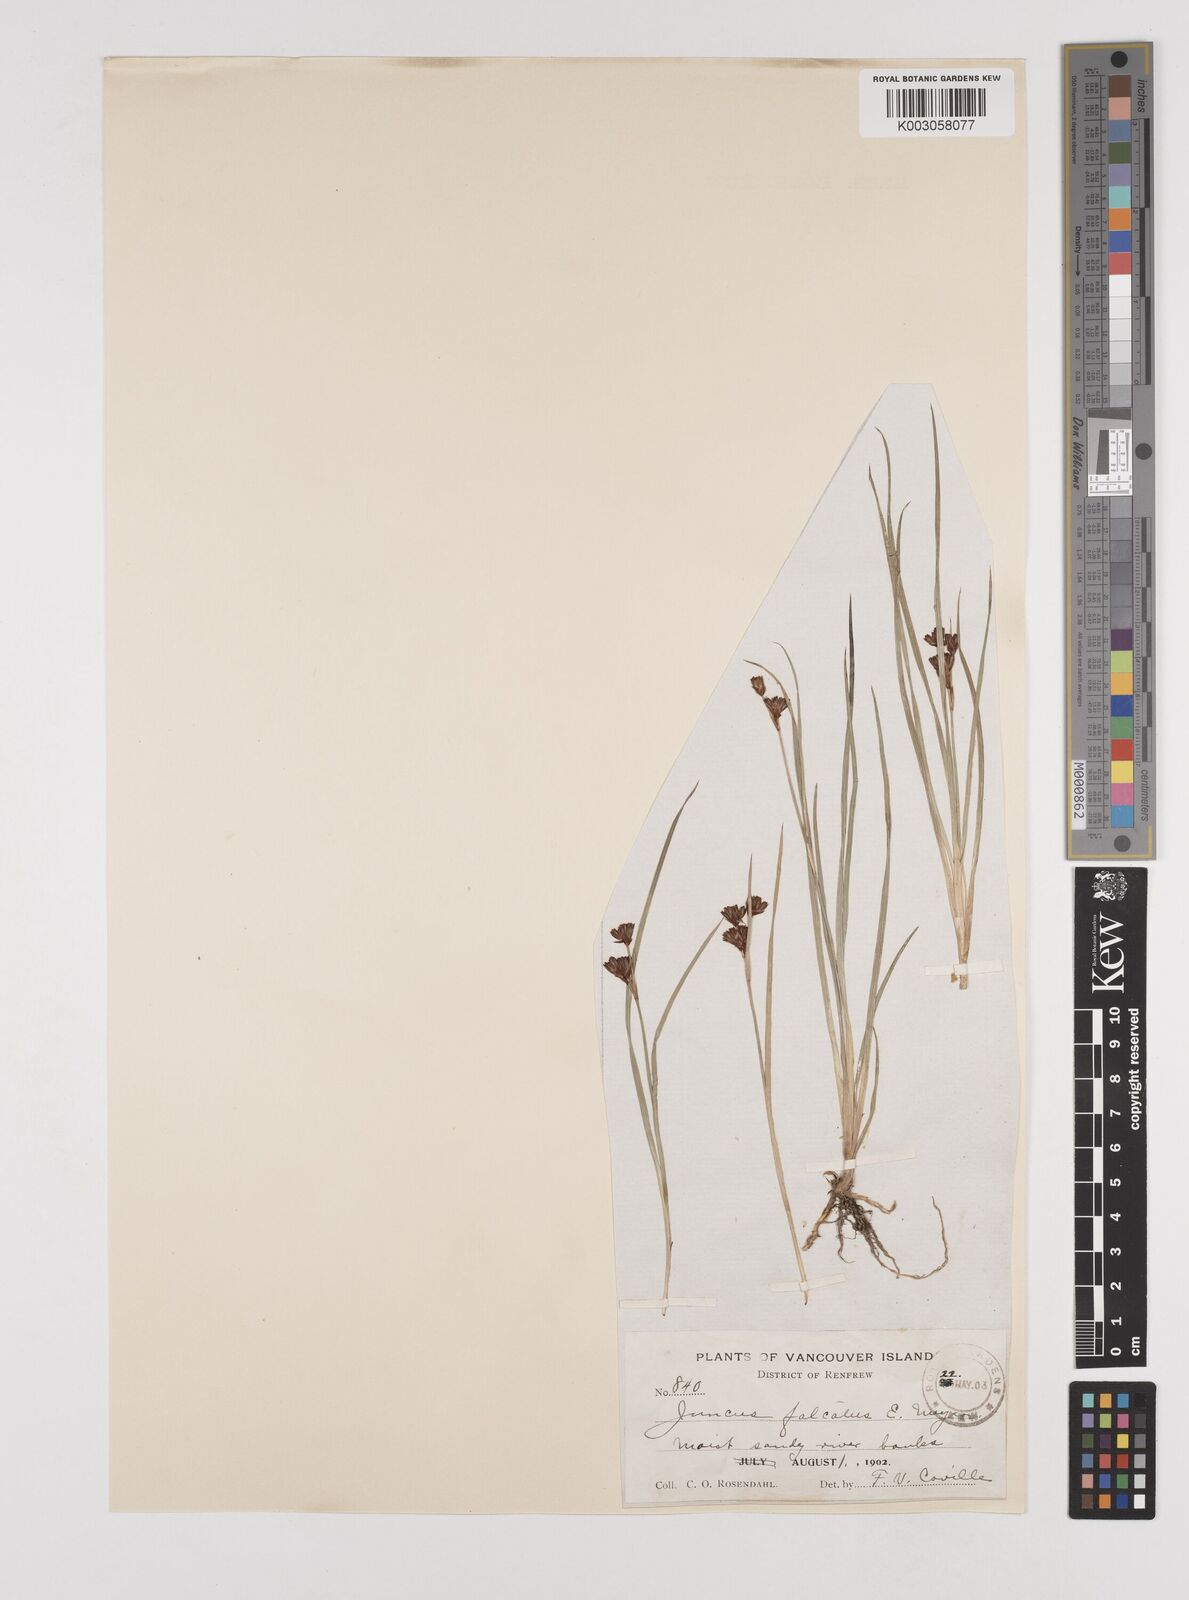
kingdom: Plantae
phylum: Tracheophyta
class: Liliopsida
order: Poales
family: Juncaceae
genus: Juncus
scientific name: Juncus falcatus
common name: Sickle-leaf rush
